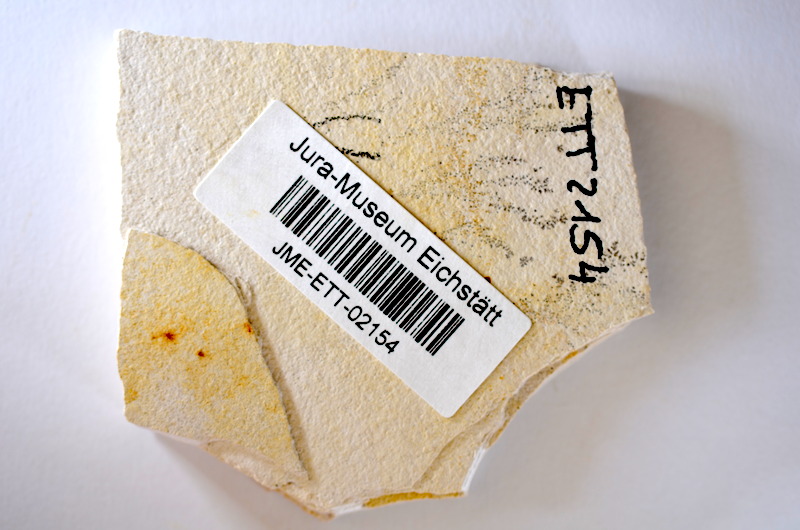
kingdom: Animalia
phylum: Chordata
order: Salmoniformes
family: Orthogonikleithridae
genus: Orthogonikleithrus
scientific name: Orthogonikleithrus hoelli
